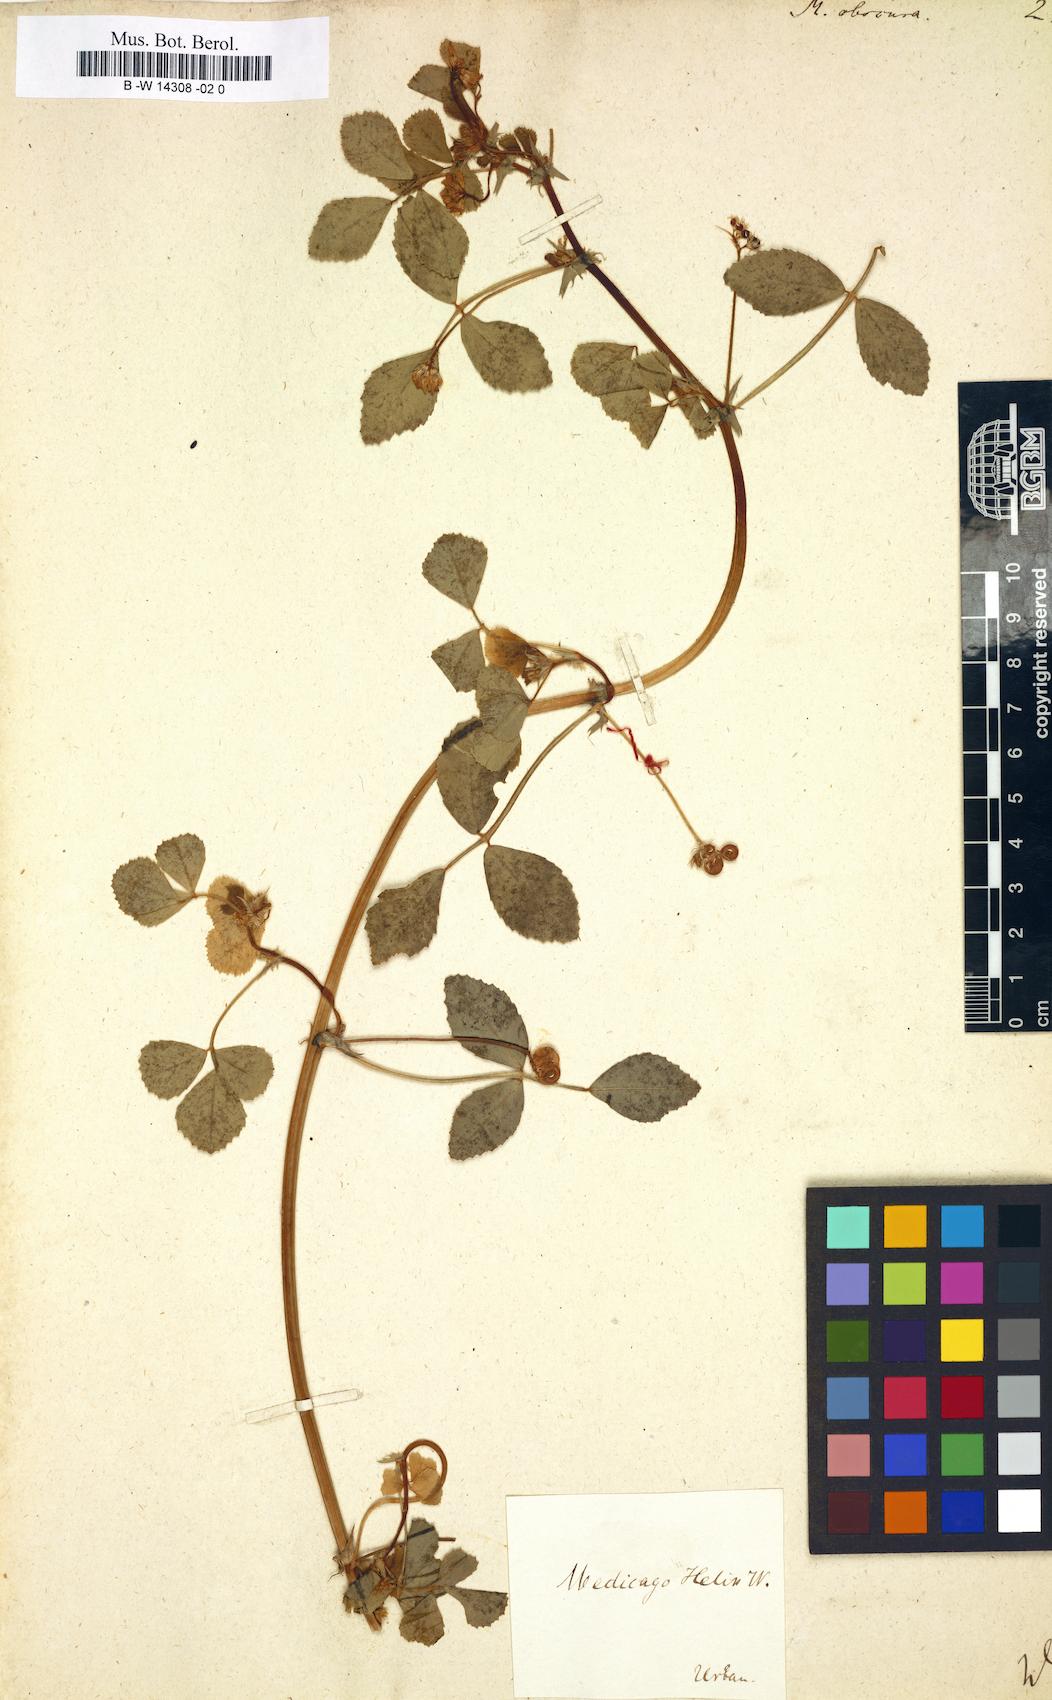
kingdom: Plantae
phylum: Tracheophyta
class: Magnoliopsida
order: Fabales
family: Fabaceae
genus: Medicago
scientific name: Medicago tornata
